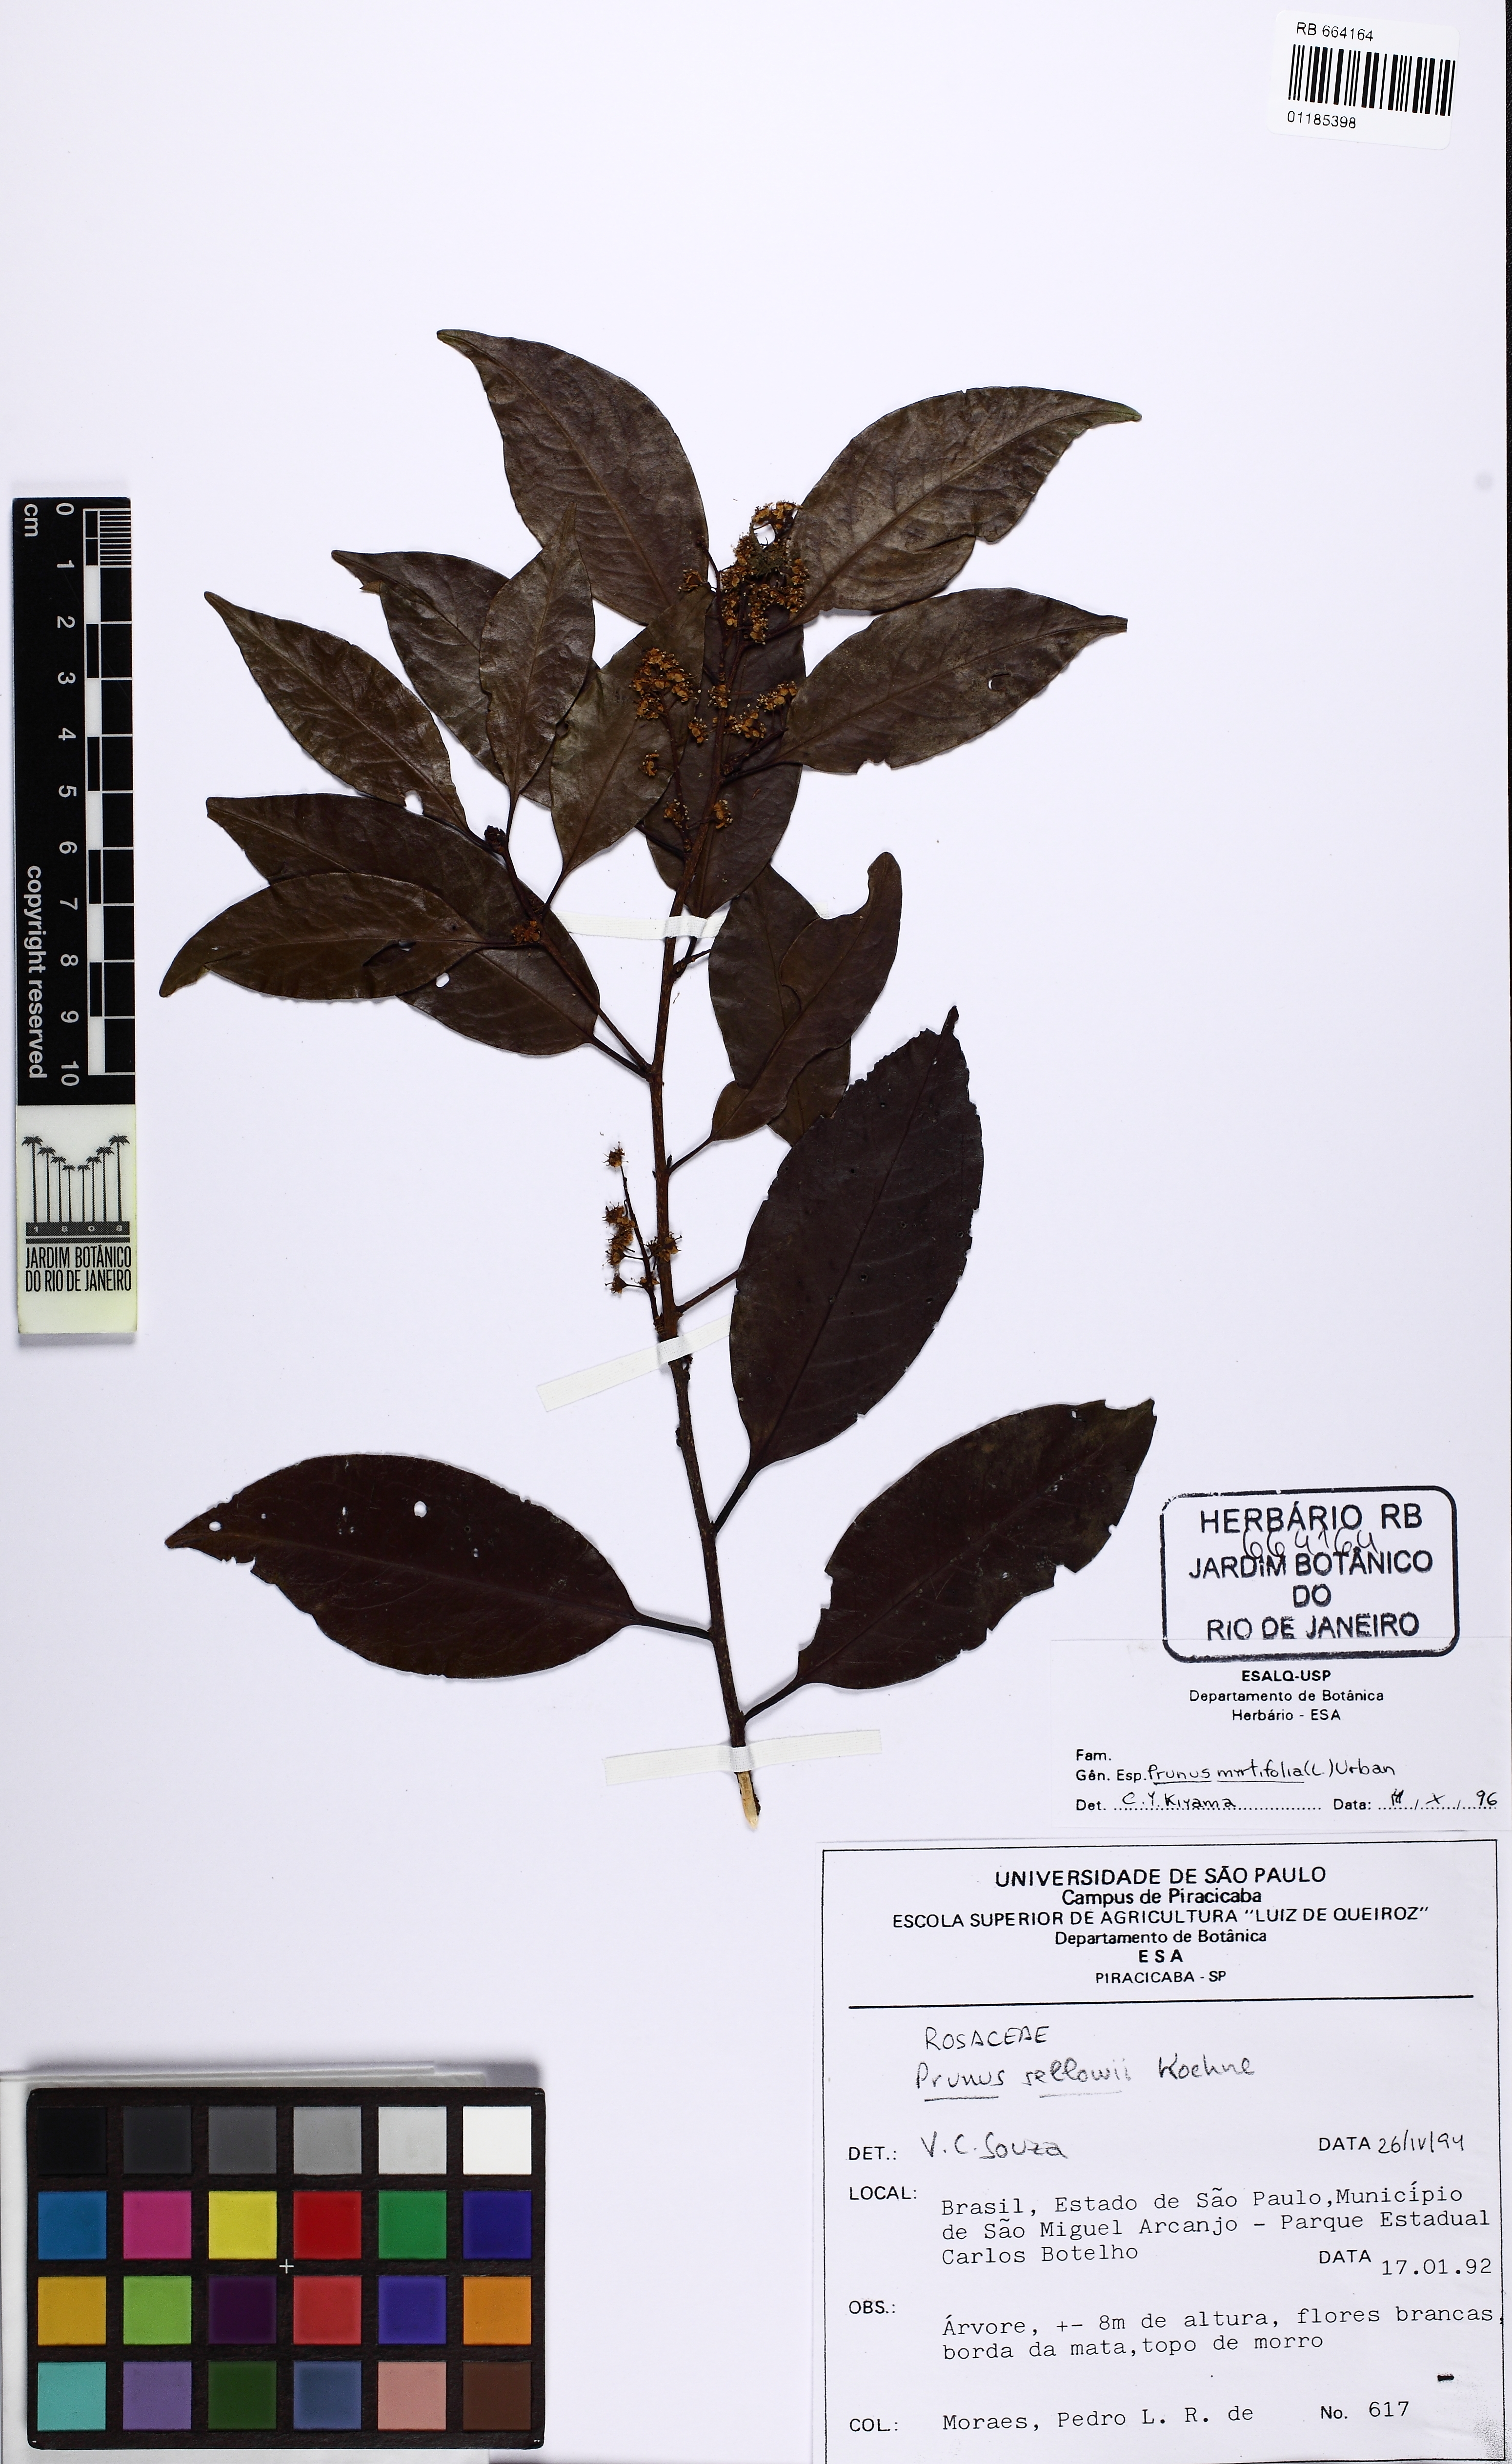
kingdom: Plantae
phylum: Tracheophyta
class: Magnoliopsida
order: Rosales
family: Rosaceae
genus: Prunus
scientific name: Prunus myrtifolia
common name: West indies cherry
